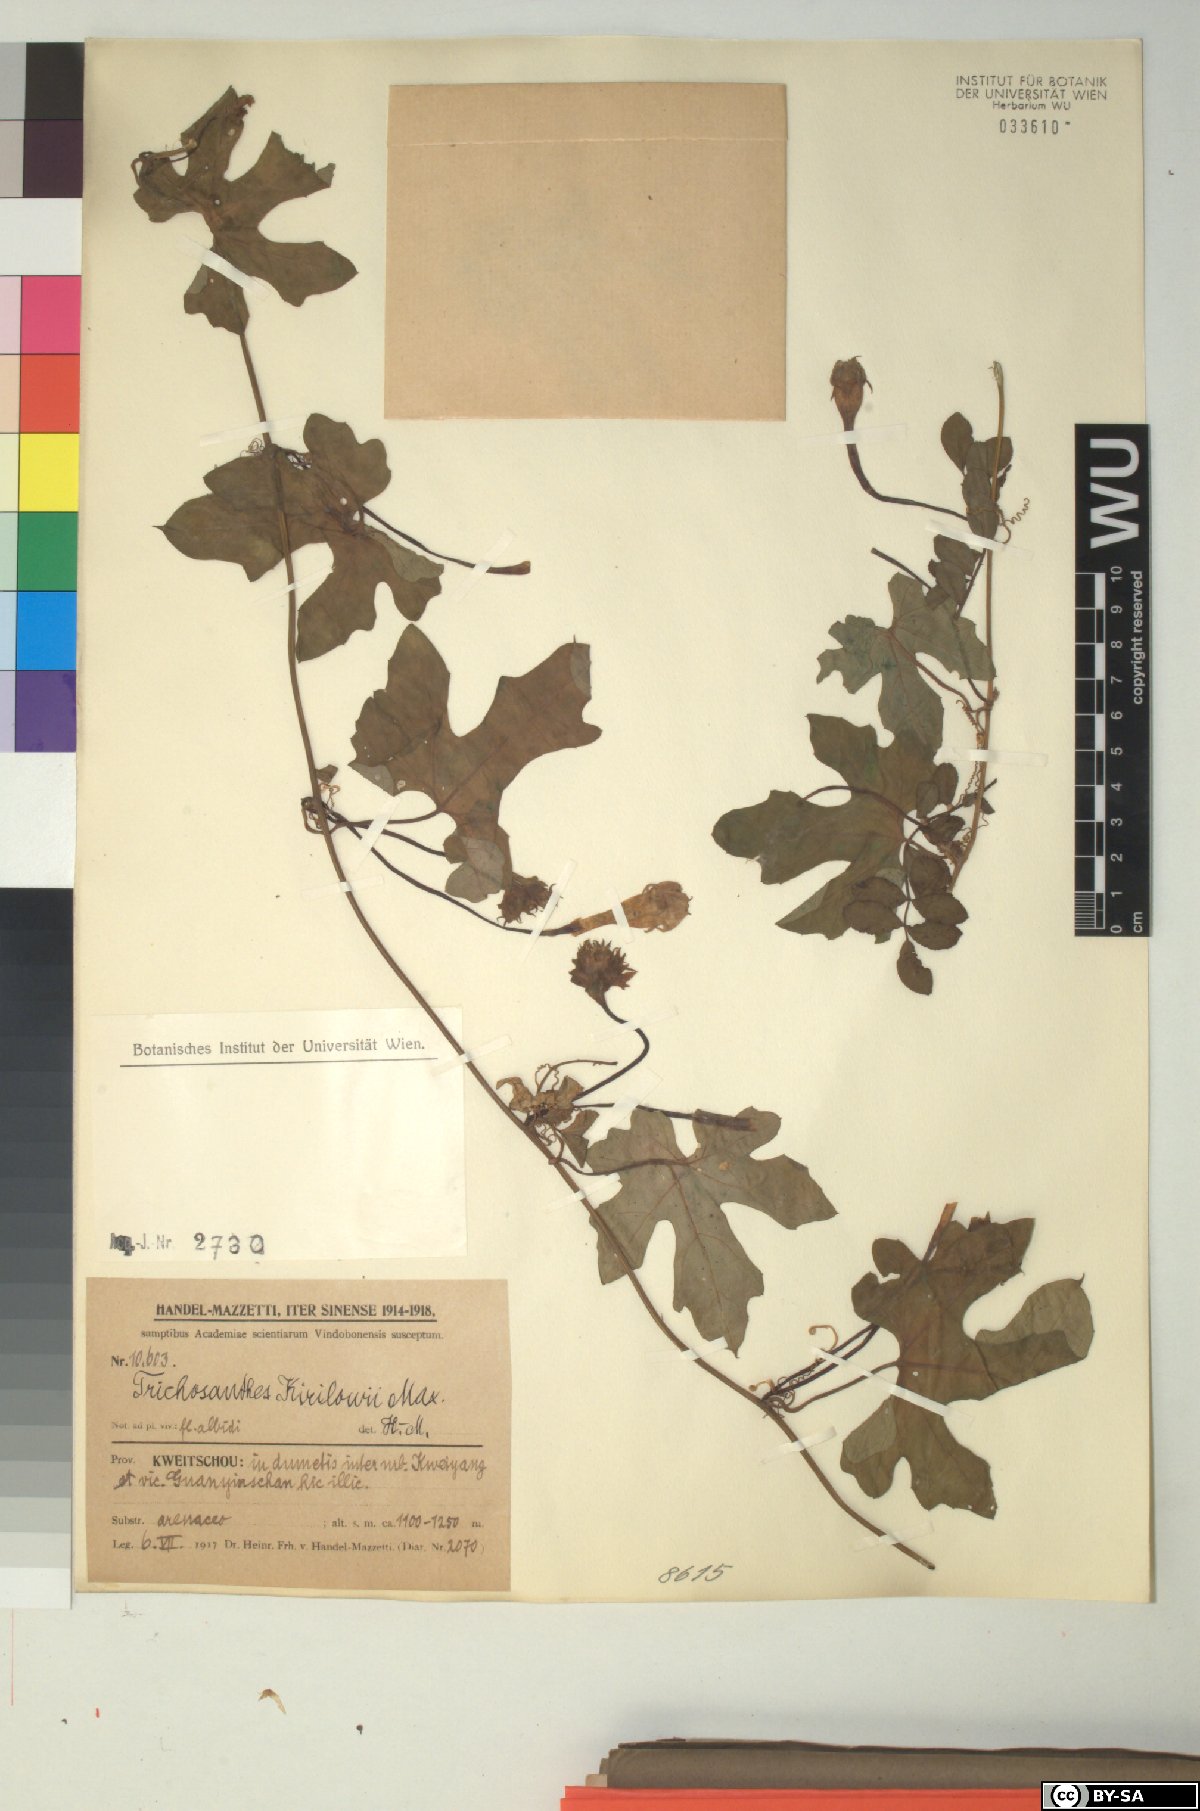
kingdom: Plantae
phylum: Tracheophyta
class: Magnoliopsida
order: Cucurbitales
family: Cucurbitaceae
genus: Trichosanthes
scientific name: Trichosanthes kirilowii
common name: Chinese-cucumber
